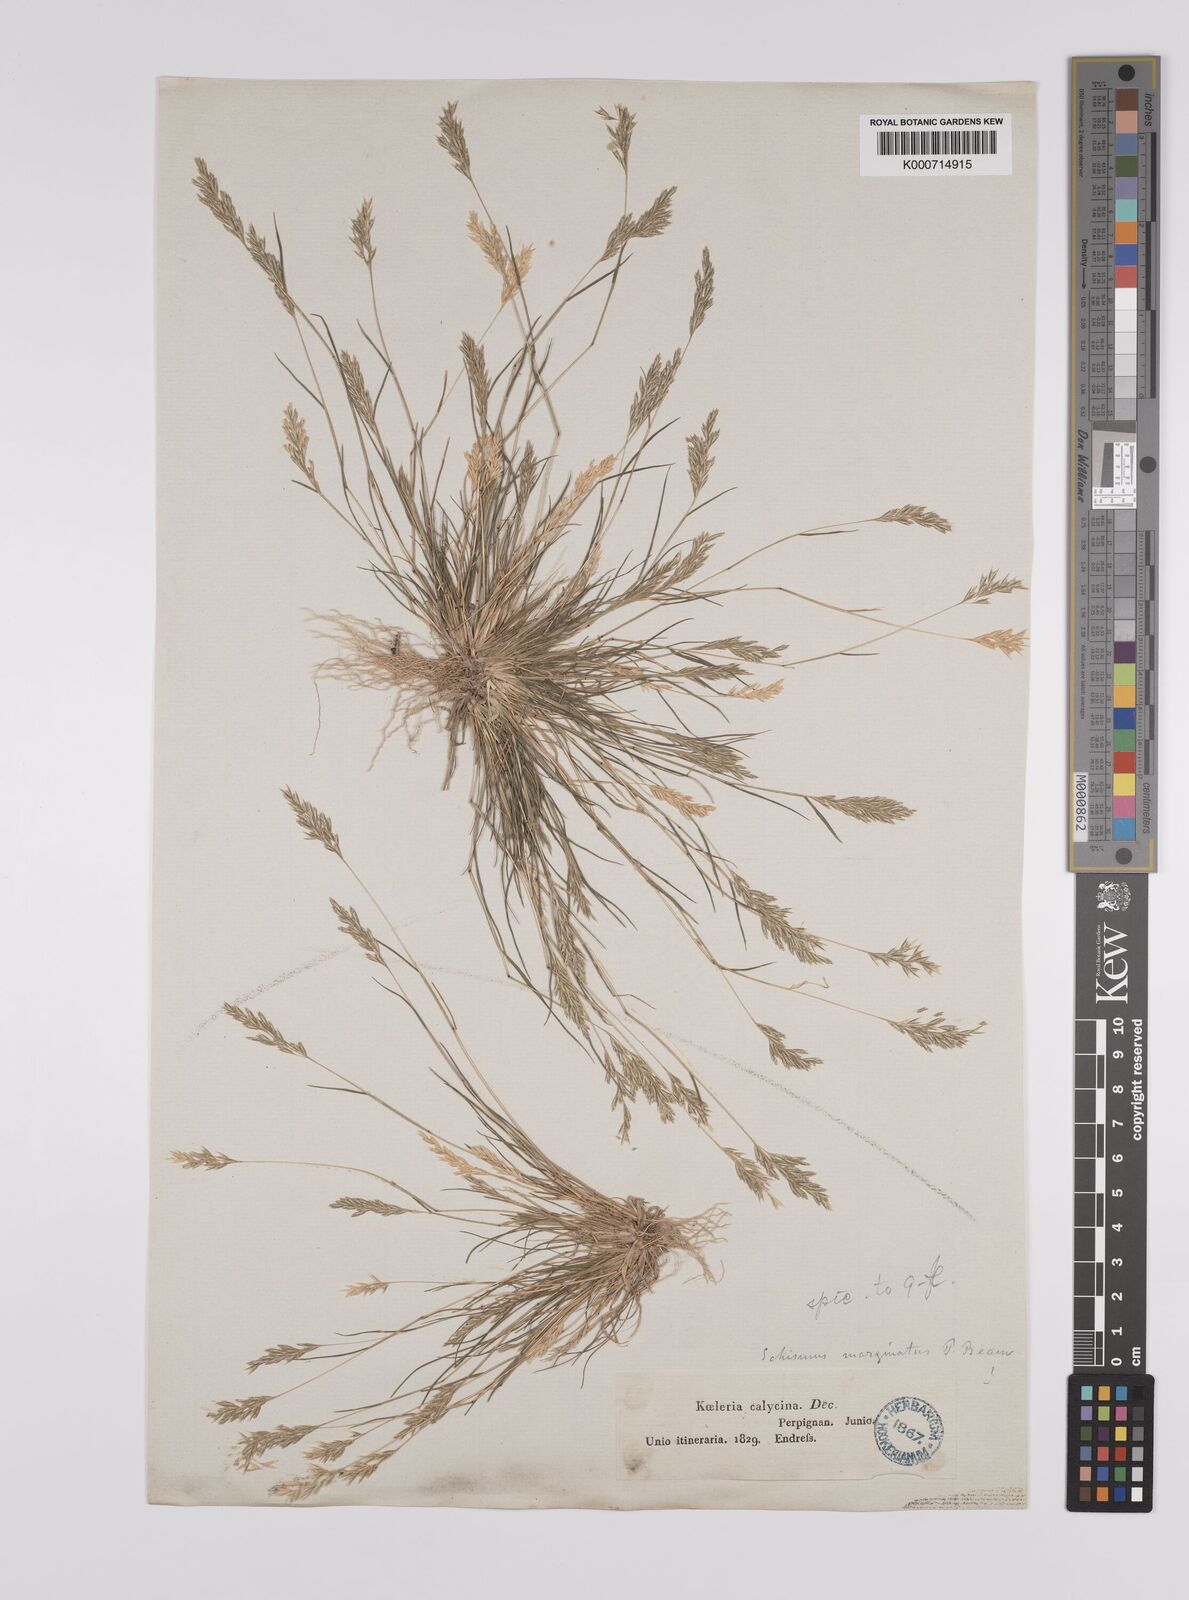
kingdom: Plantae
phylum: Tracheophyta
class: Liliopsida
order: Poales
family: Poaceae
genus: Schismus
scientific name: Schismus barbatus
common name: Kelch-grass
